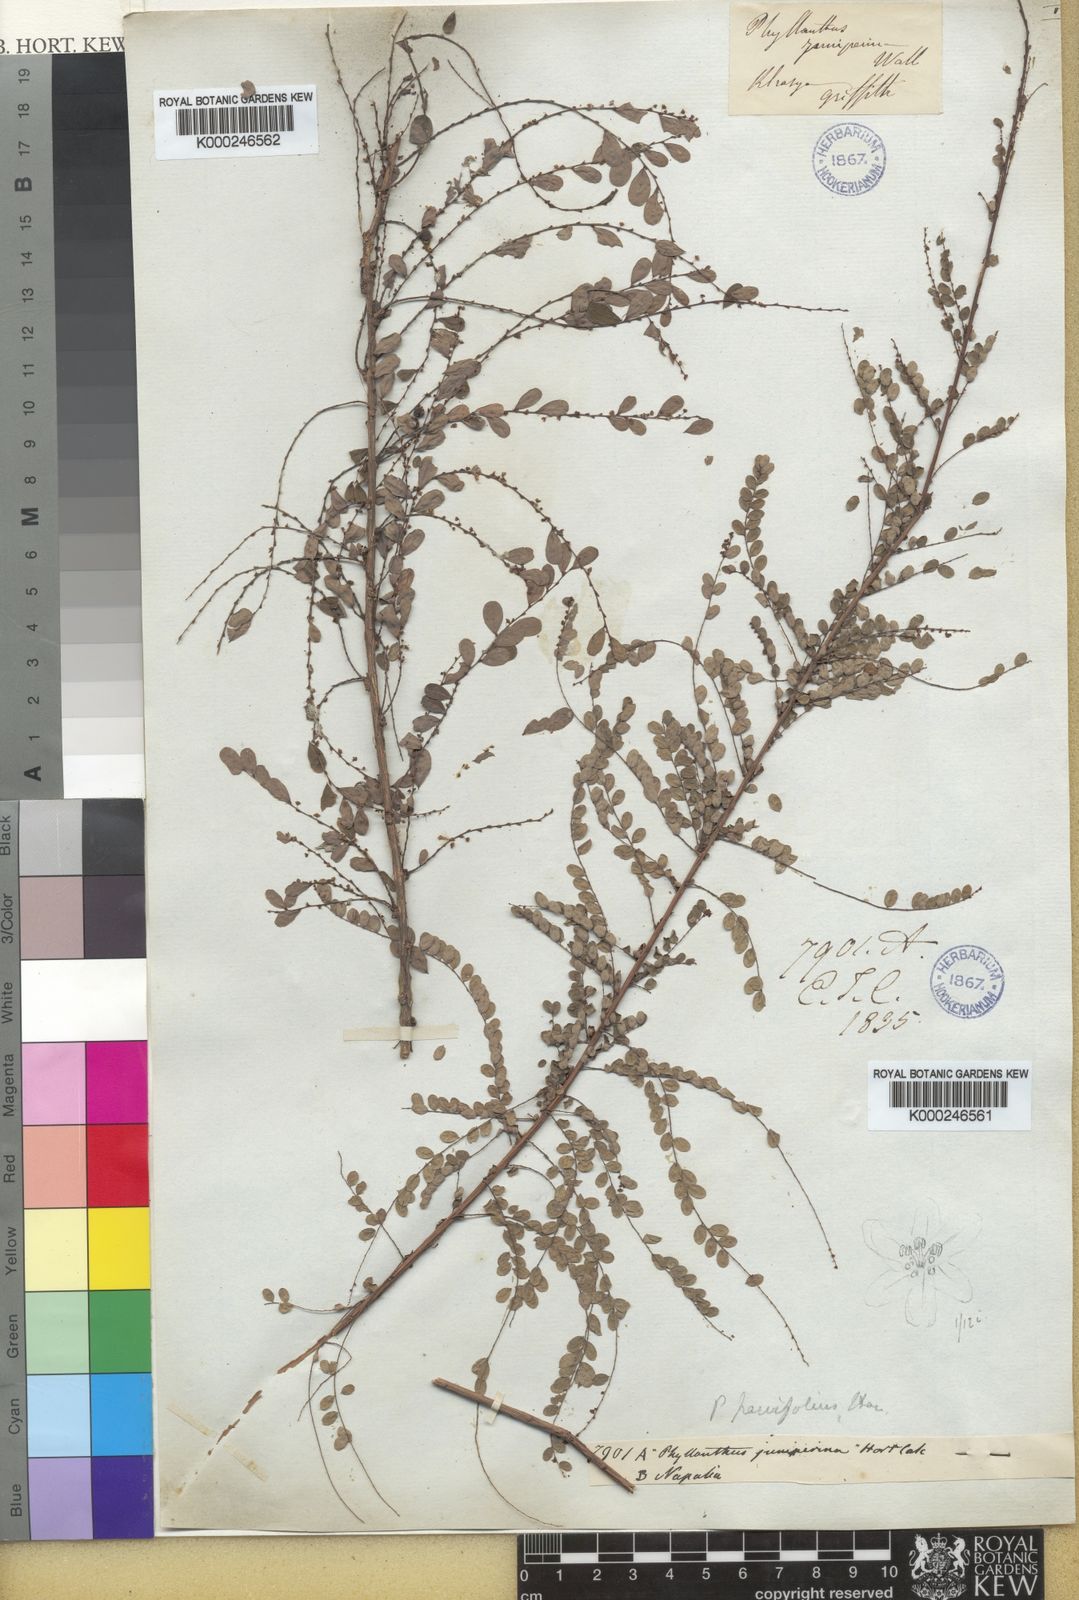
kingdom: Plantae
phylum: Tracheophyta
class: Magnoliopsida
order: Malpighiales
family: Phyllanthaceae
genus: Phyllanthus
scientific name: Phyllanthus parvifolius
